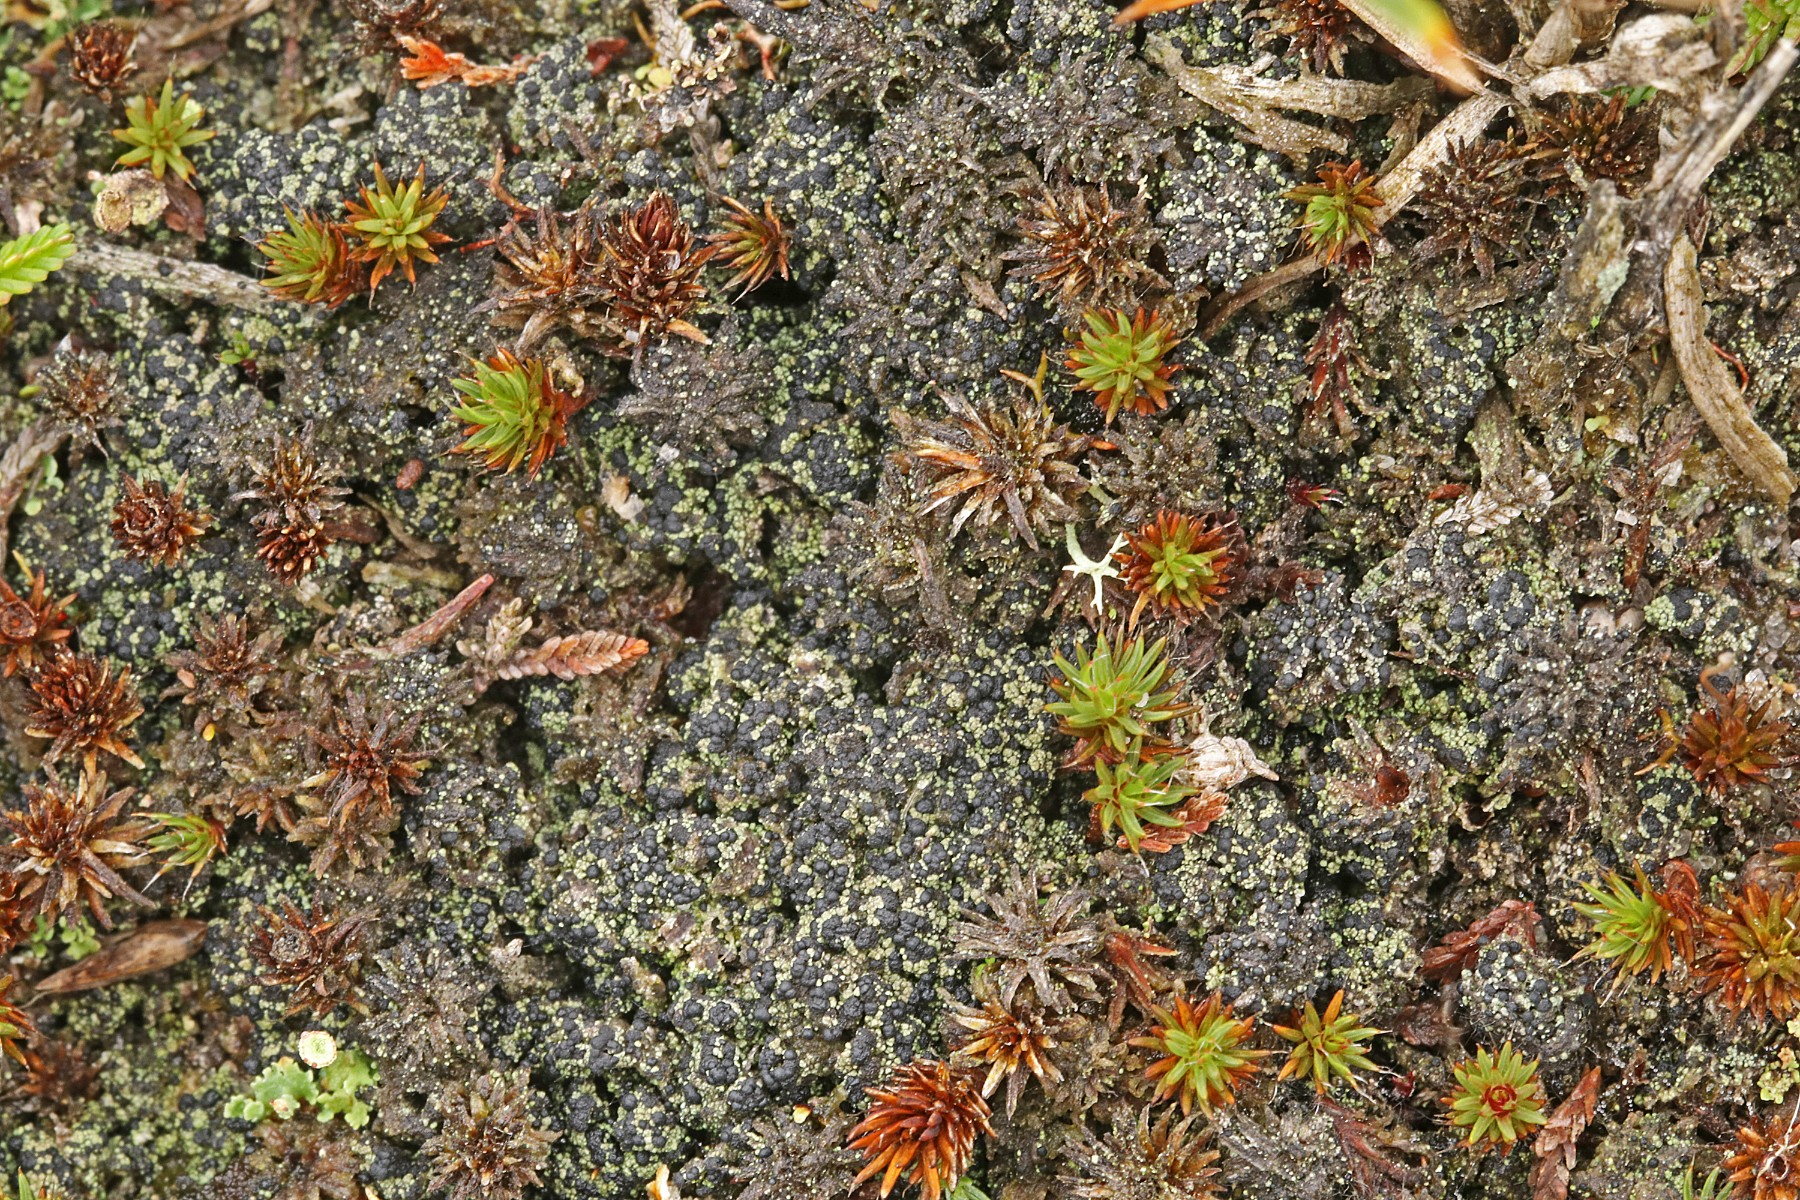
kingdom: Fungi
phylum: Ascomycota
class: Lecanoromycetes
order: Lecanorales
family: Byssolomataceae
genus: Micarea
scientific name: Micarea lignaria
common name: tørve-knaplav
